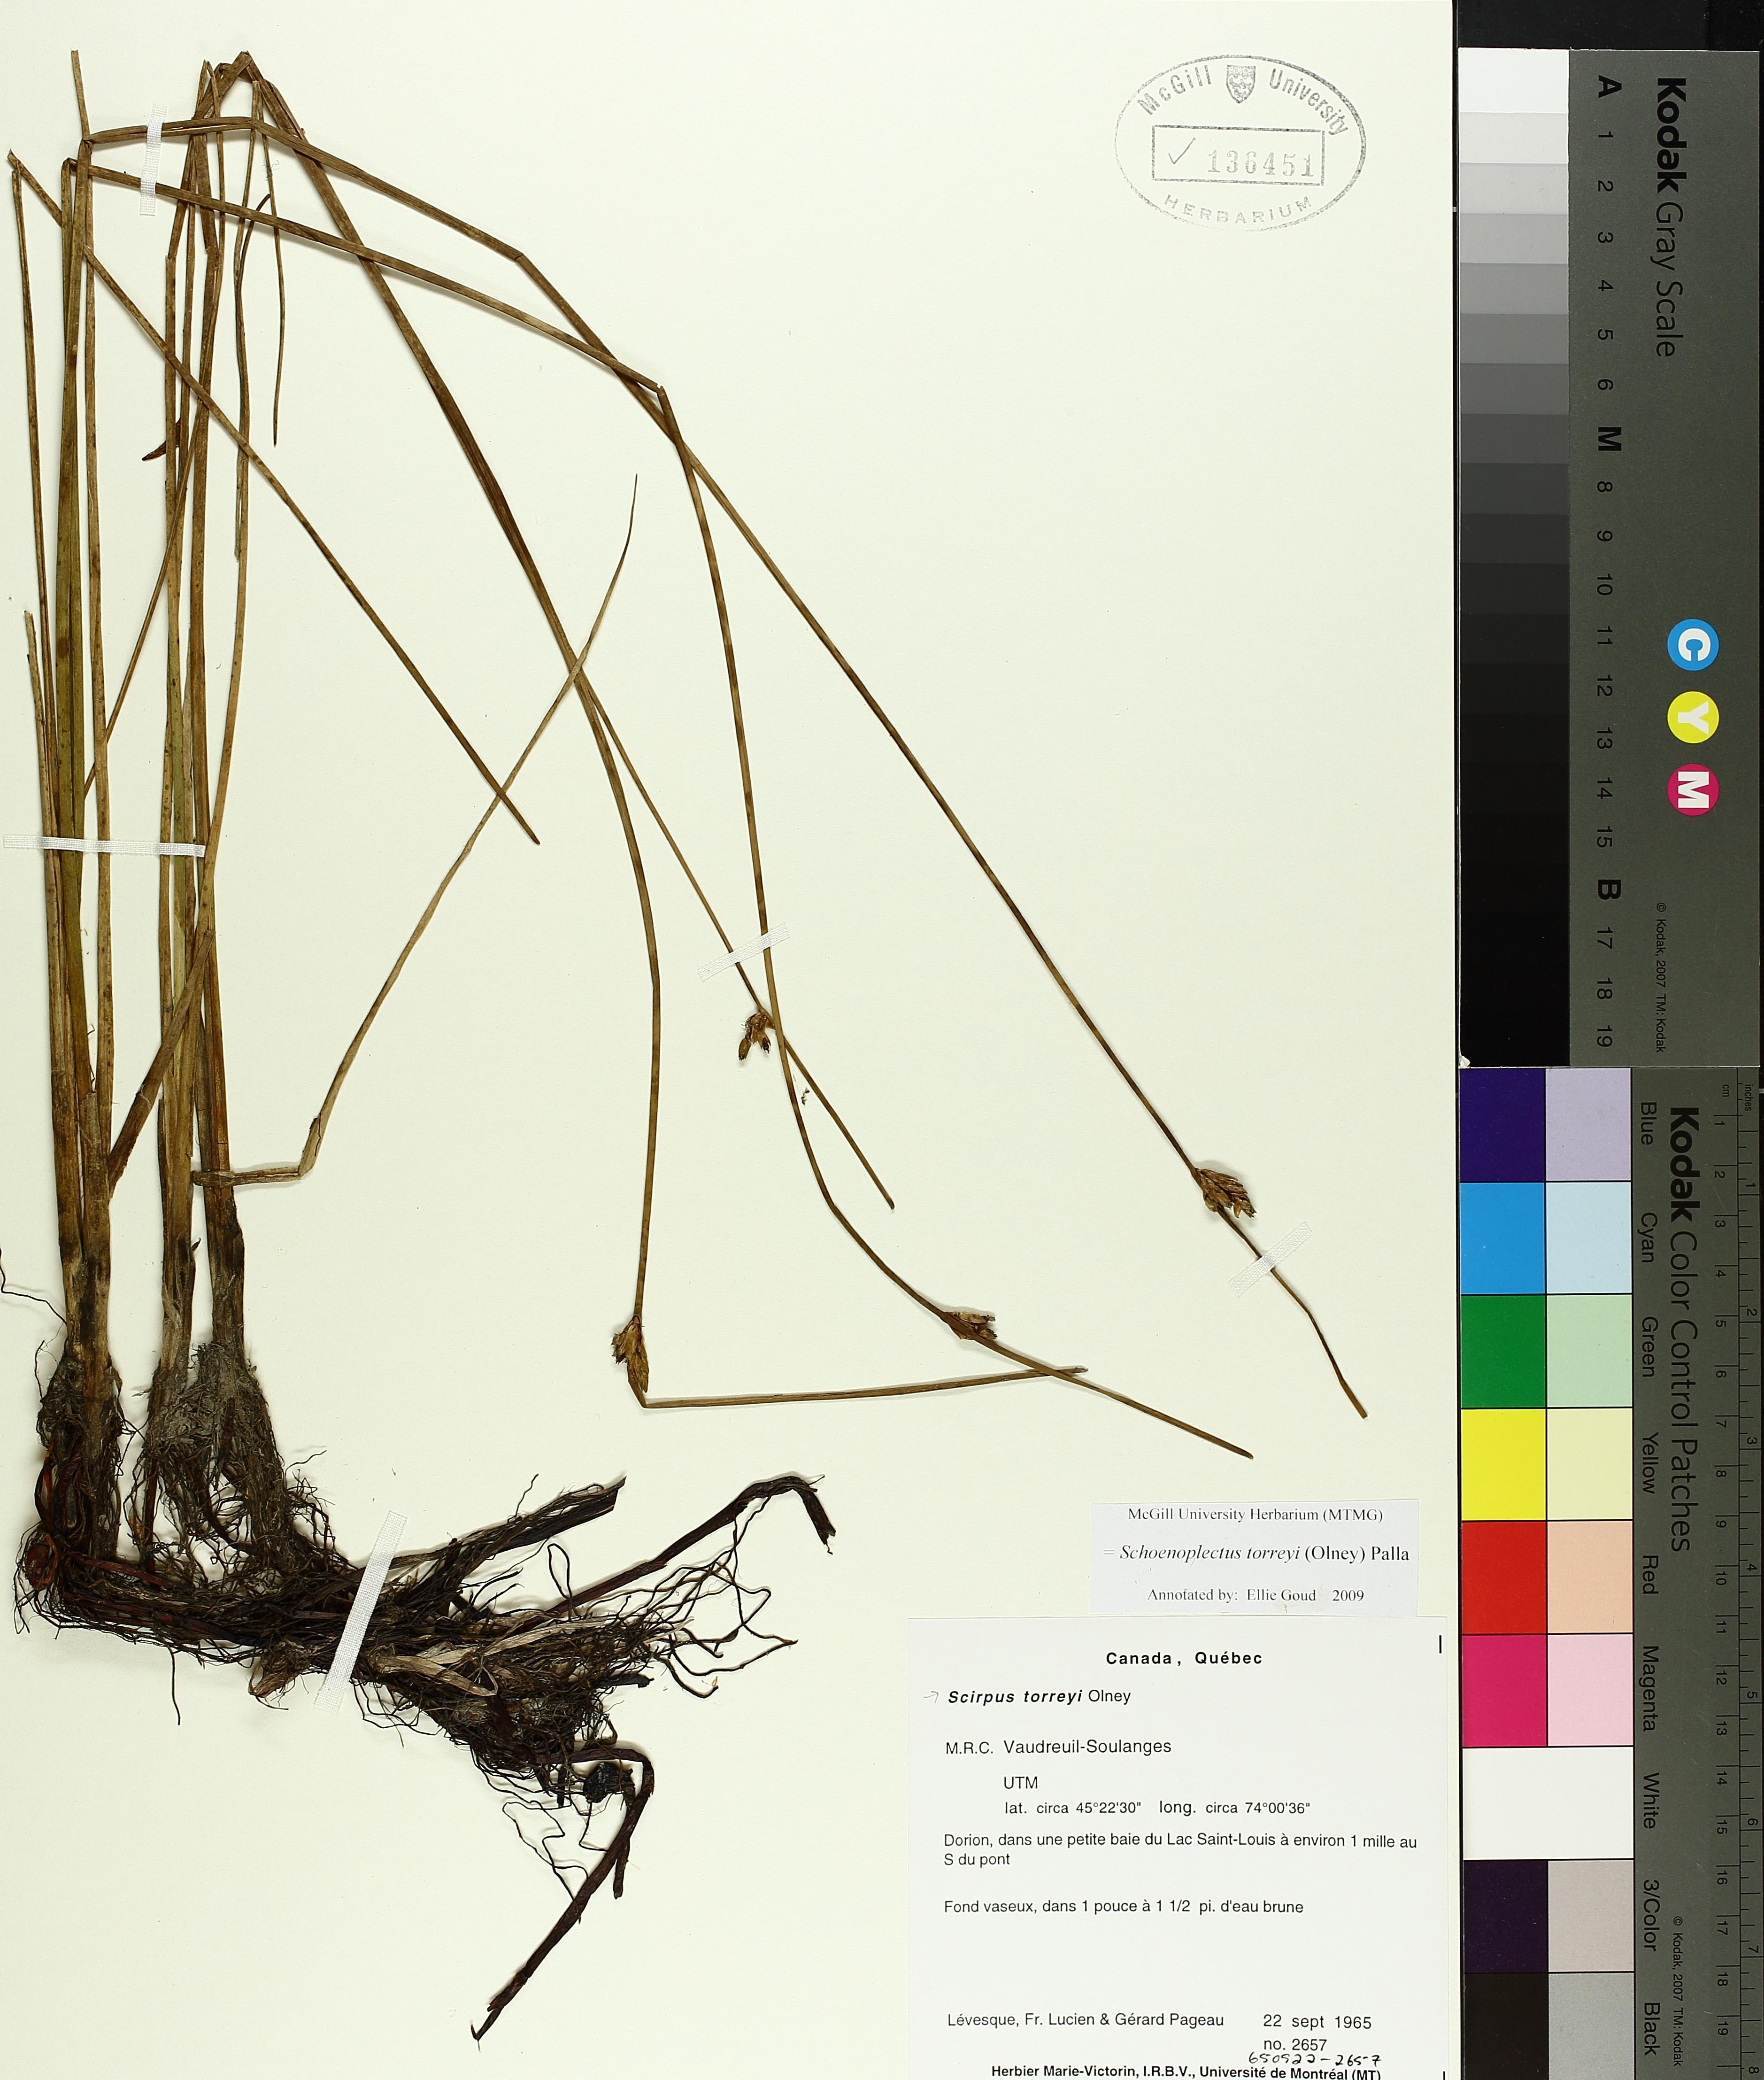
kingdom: Plantae
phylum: Tracheophyta
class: Liliopsida
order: Poales
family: Cyperaceae
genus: Schoenoplectus
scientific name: Schoenoplectus torreyi
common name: Torrey's bulrush
